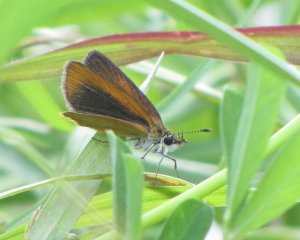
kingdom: Animalia
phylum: Arthropoda
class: Insecta
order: Lepidoptera
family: Hesperiidae
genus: Ancyloxypha
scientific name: Ancyloxypha numitor
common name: Least Skipper
